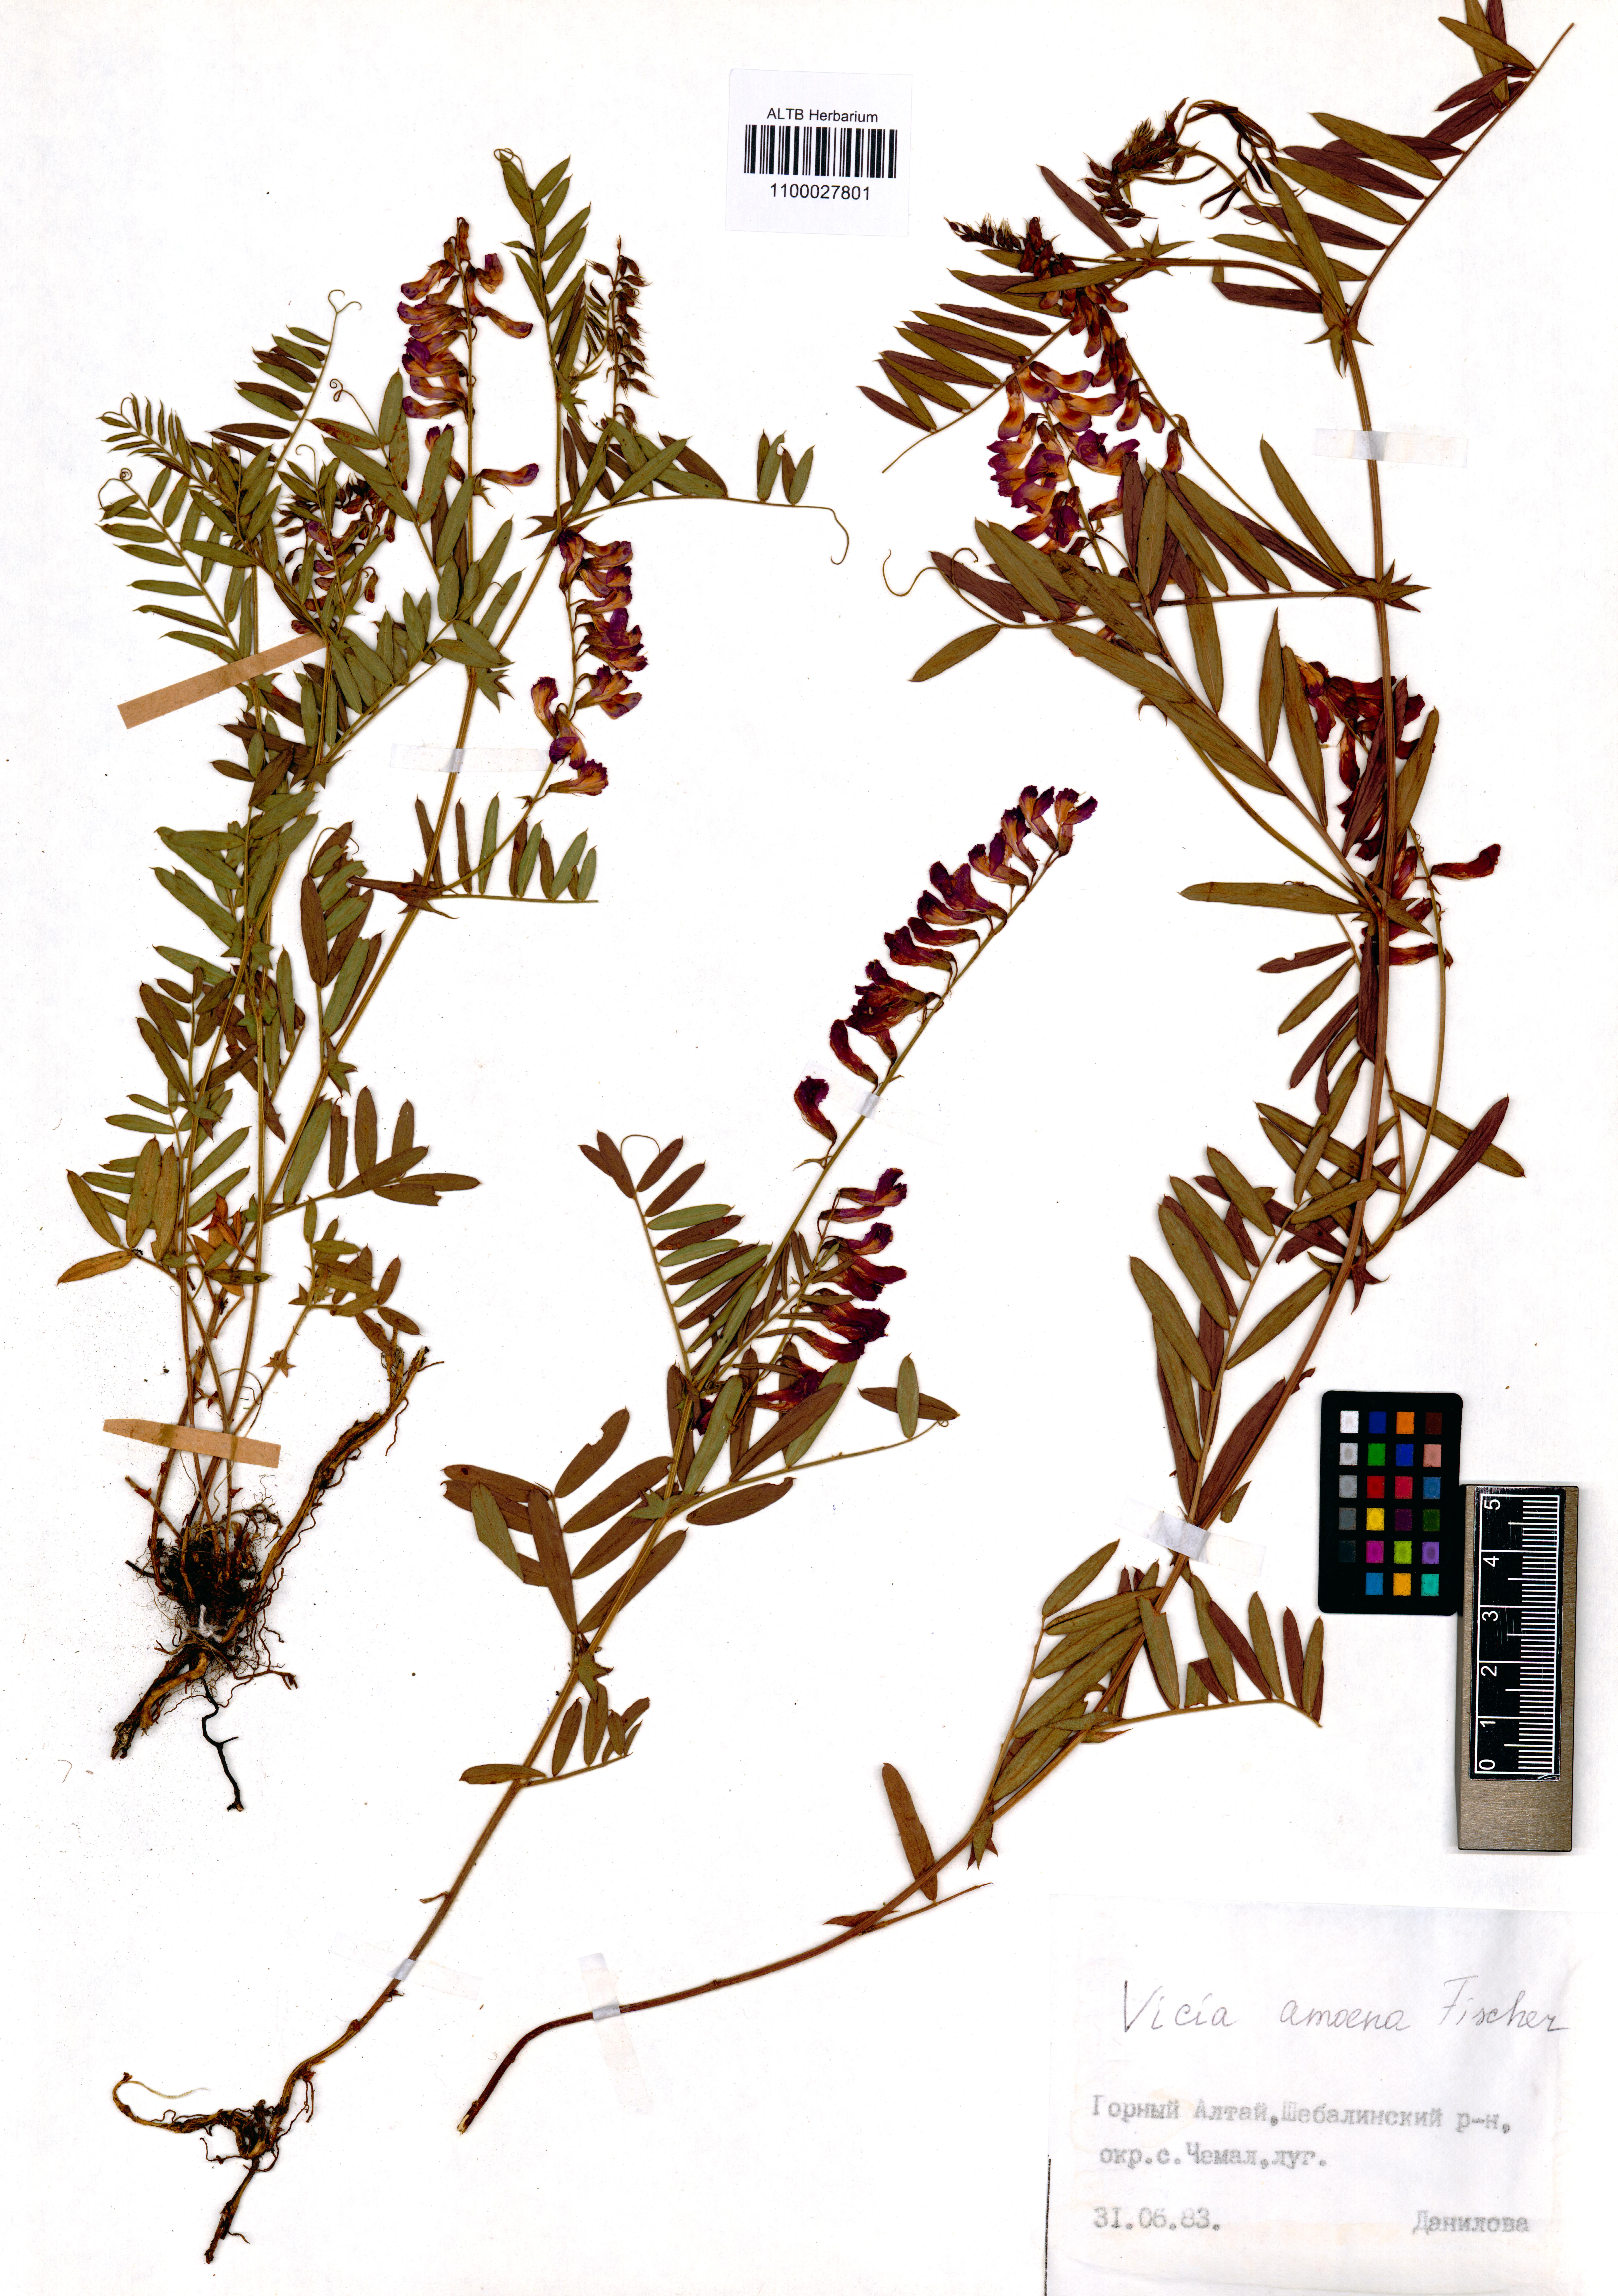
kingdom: Plantae
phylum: Tracheophyta
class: Magnoliopsida
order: Fabales
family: Fabaceae
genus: Vicia
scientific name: Vicia amoena
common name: Cheder ebs
